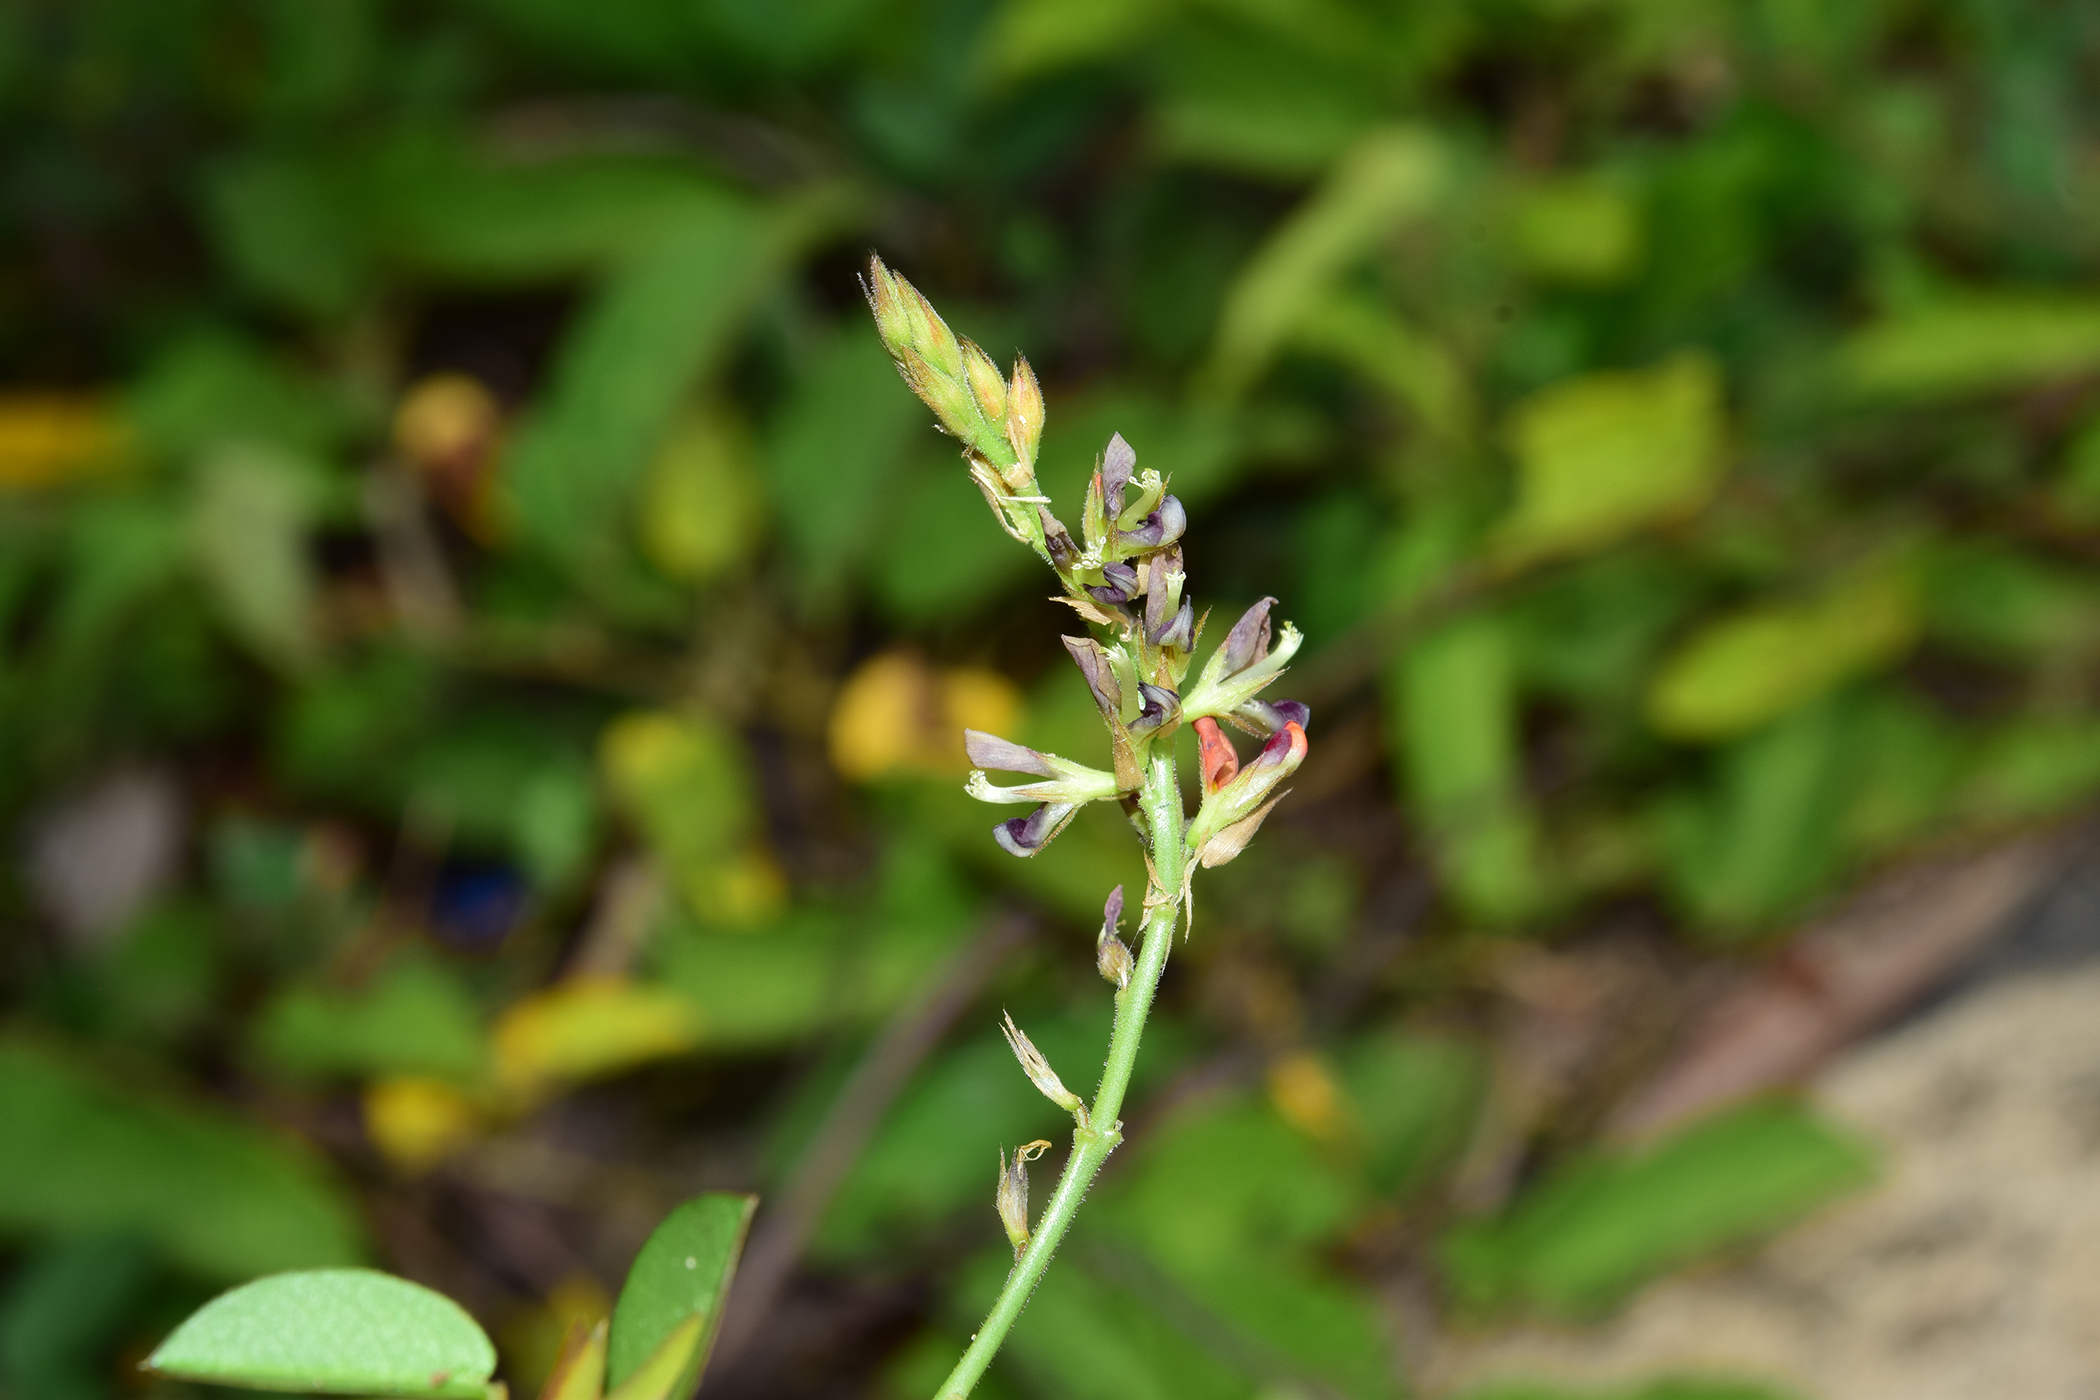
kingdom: Plantae
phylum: Tracheophyta
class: Magnoliopsida
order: Fabales
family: Fabaceae
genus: Alysicarpus
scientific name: Alysicarpus vaginalis
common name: White moneywort
